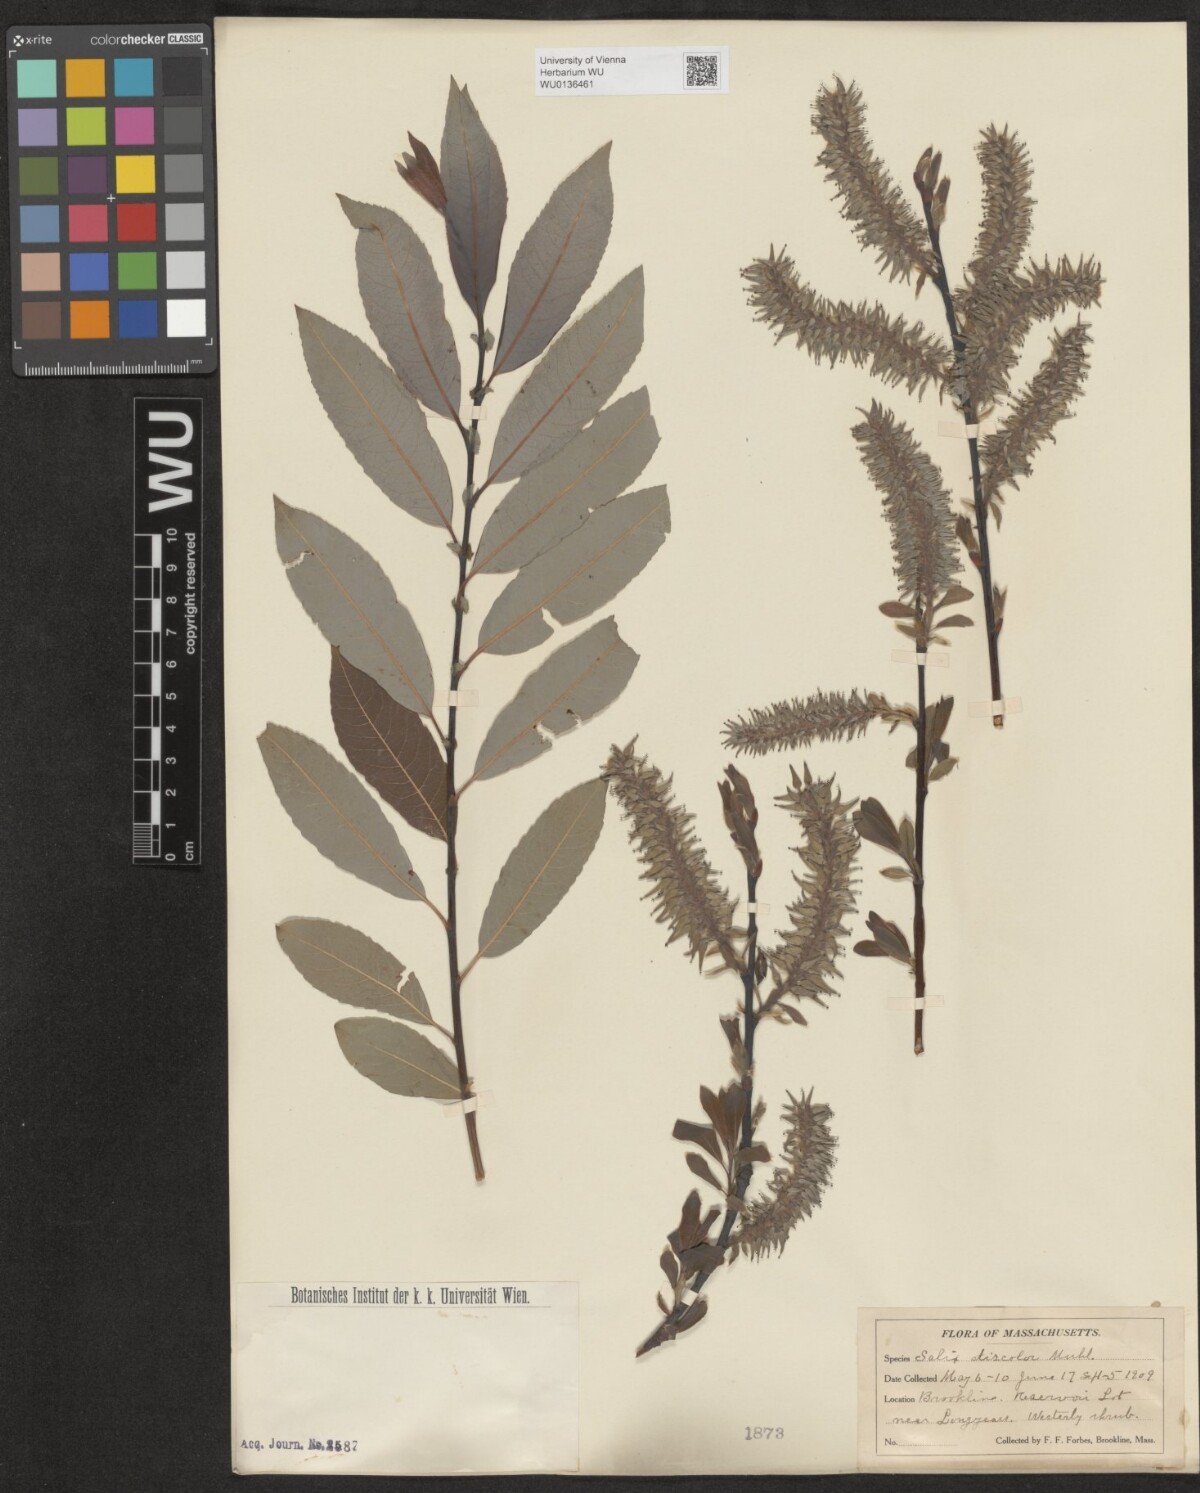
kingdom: Plantae
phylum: Tracheophyta
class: Magnoliopsida
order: Malpighiales
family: Salicaceae
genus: Salix
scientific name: Salix discolor
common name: Glaucous willow
